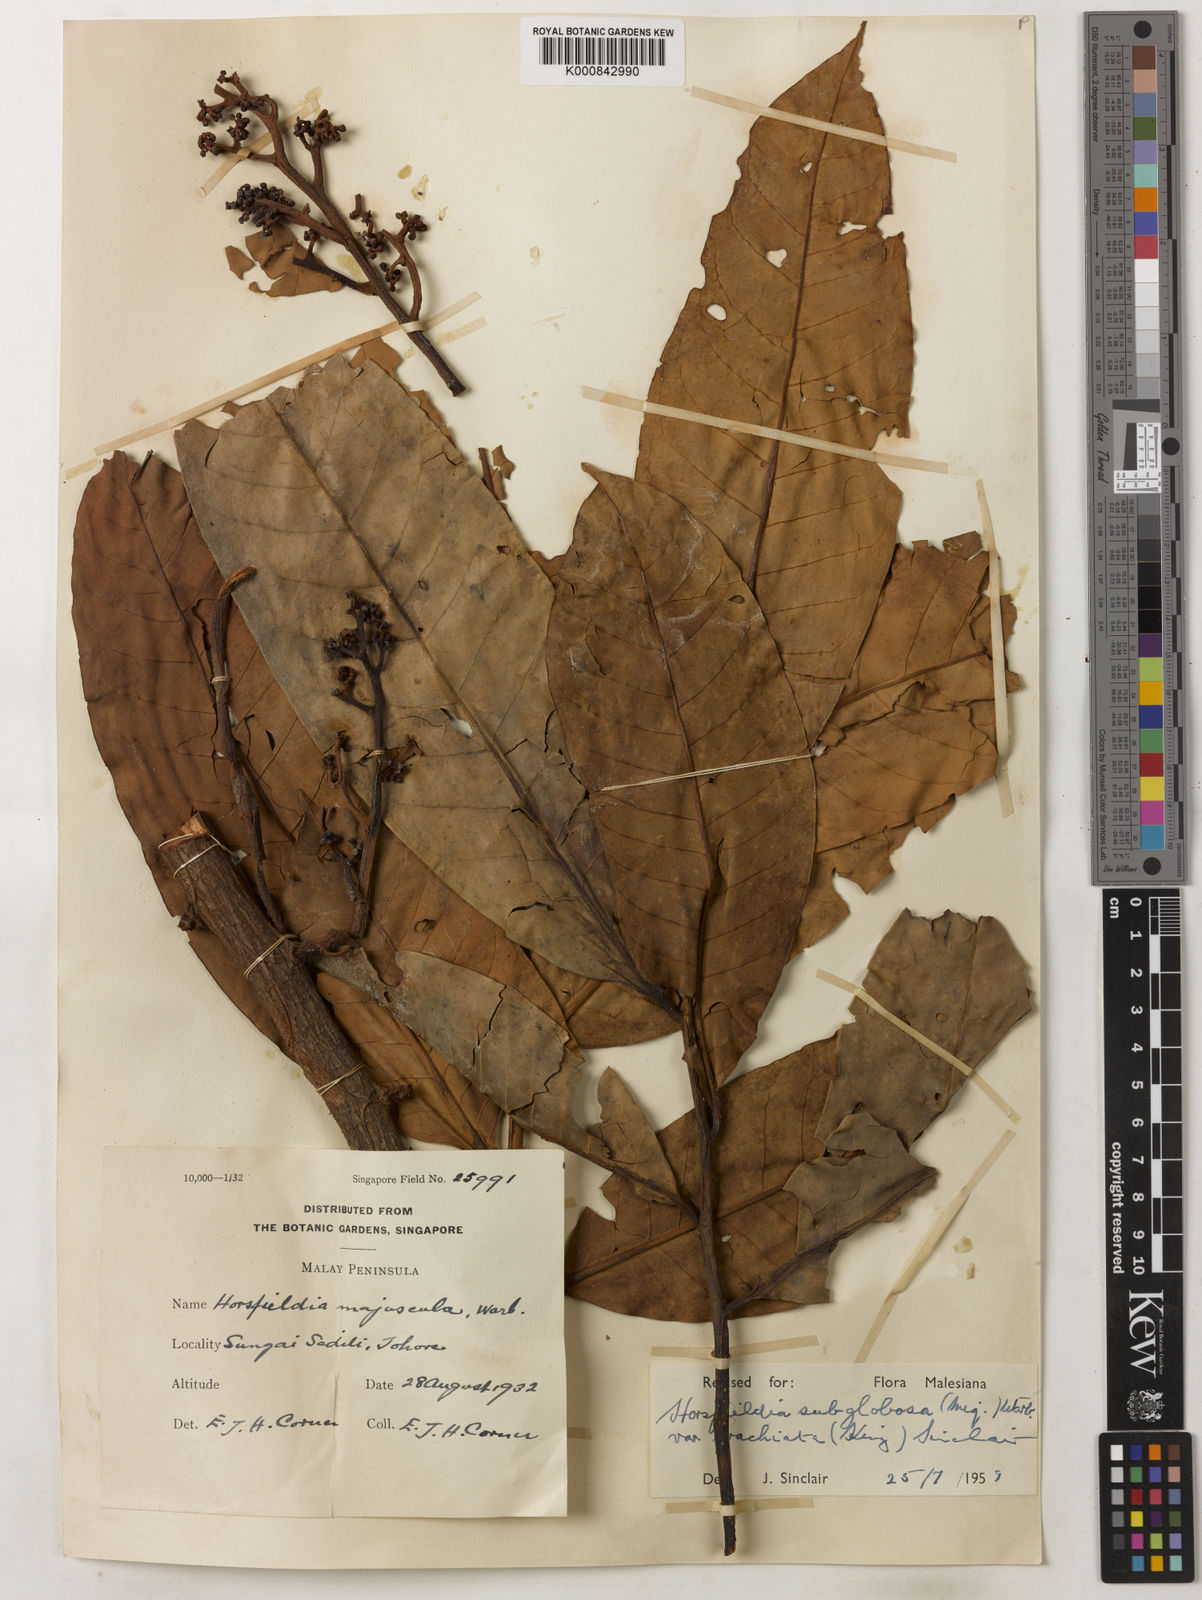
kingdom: Plantae
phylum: Tracheophyta
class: Magnoliopsida
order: Magnoliales
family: Myristicaceae
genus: Horsfieldia
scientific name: Horsfieldia brachiata
